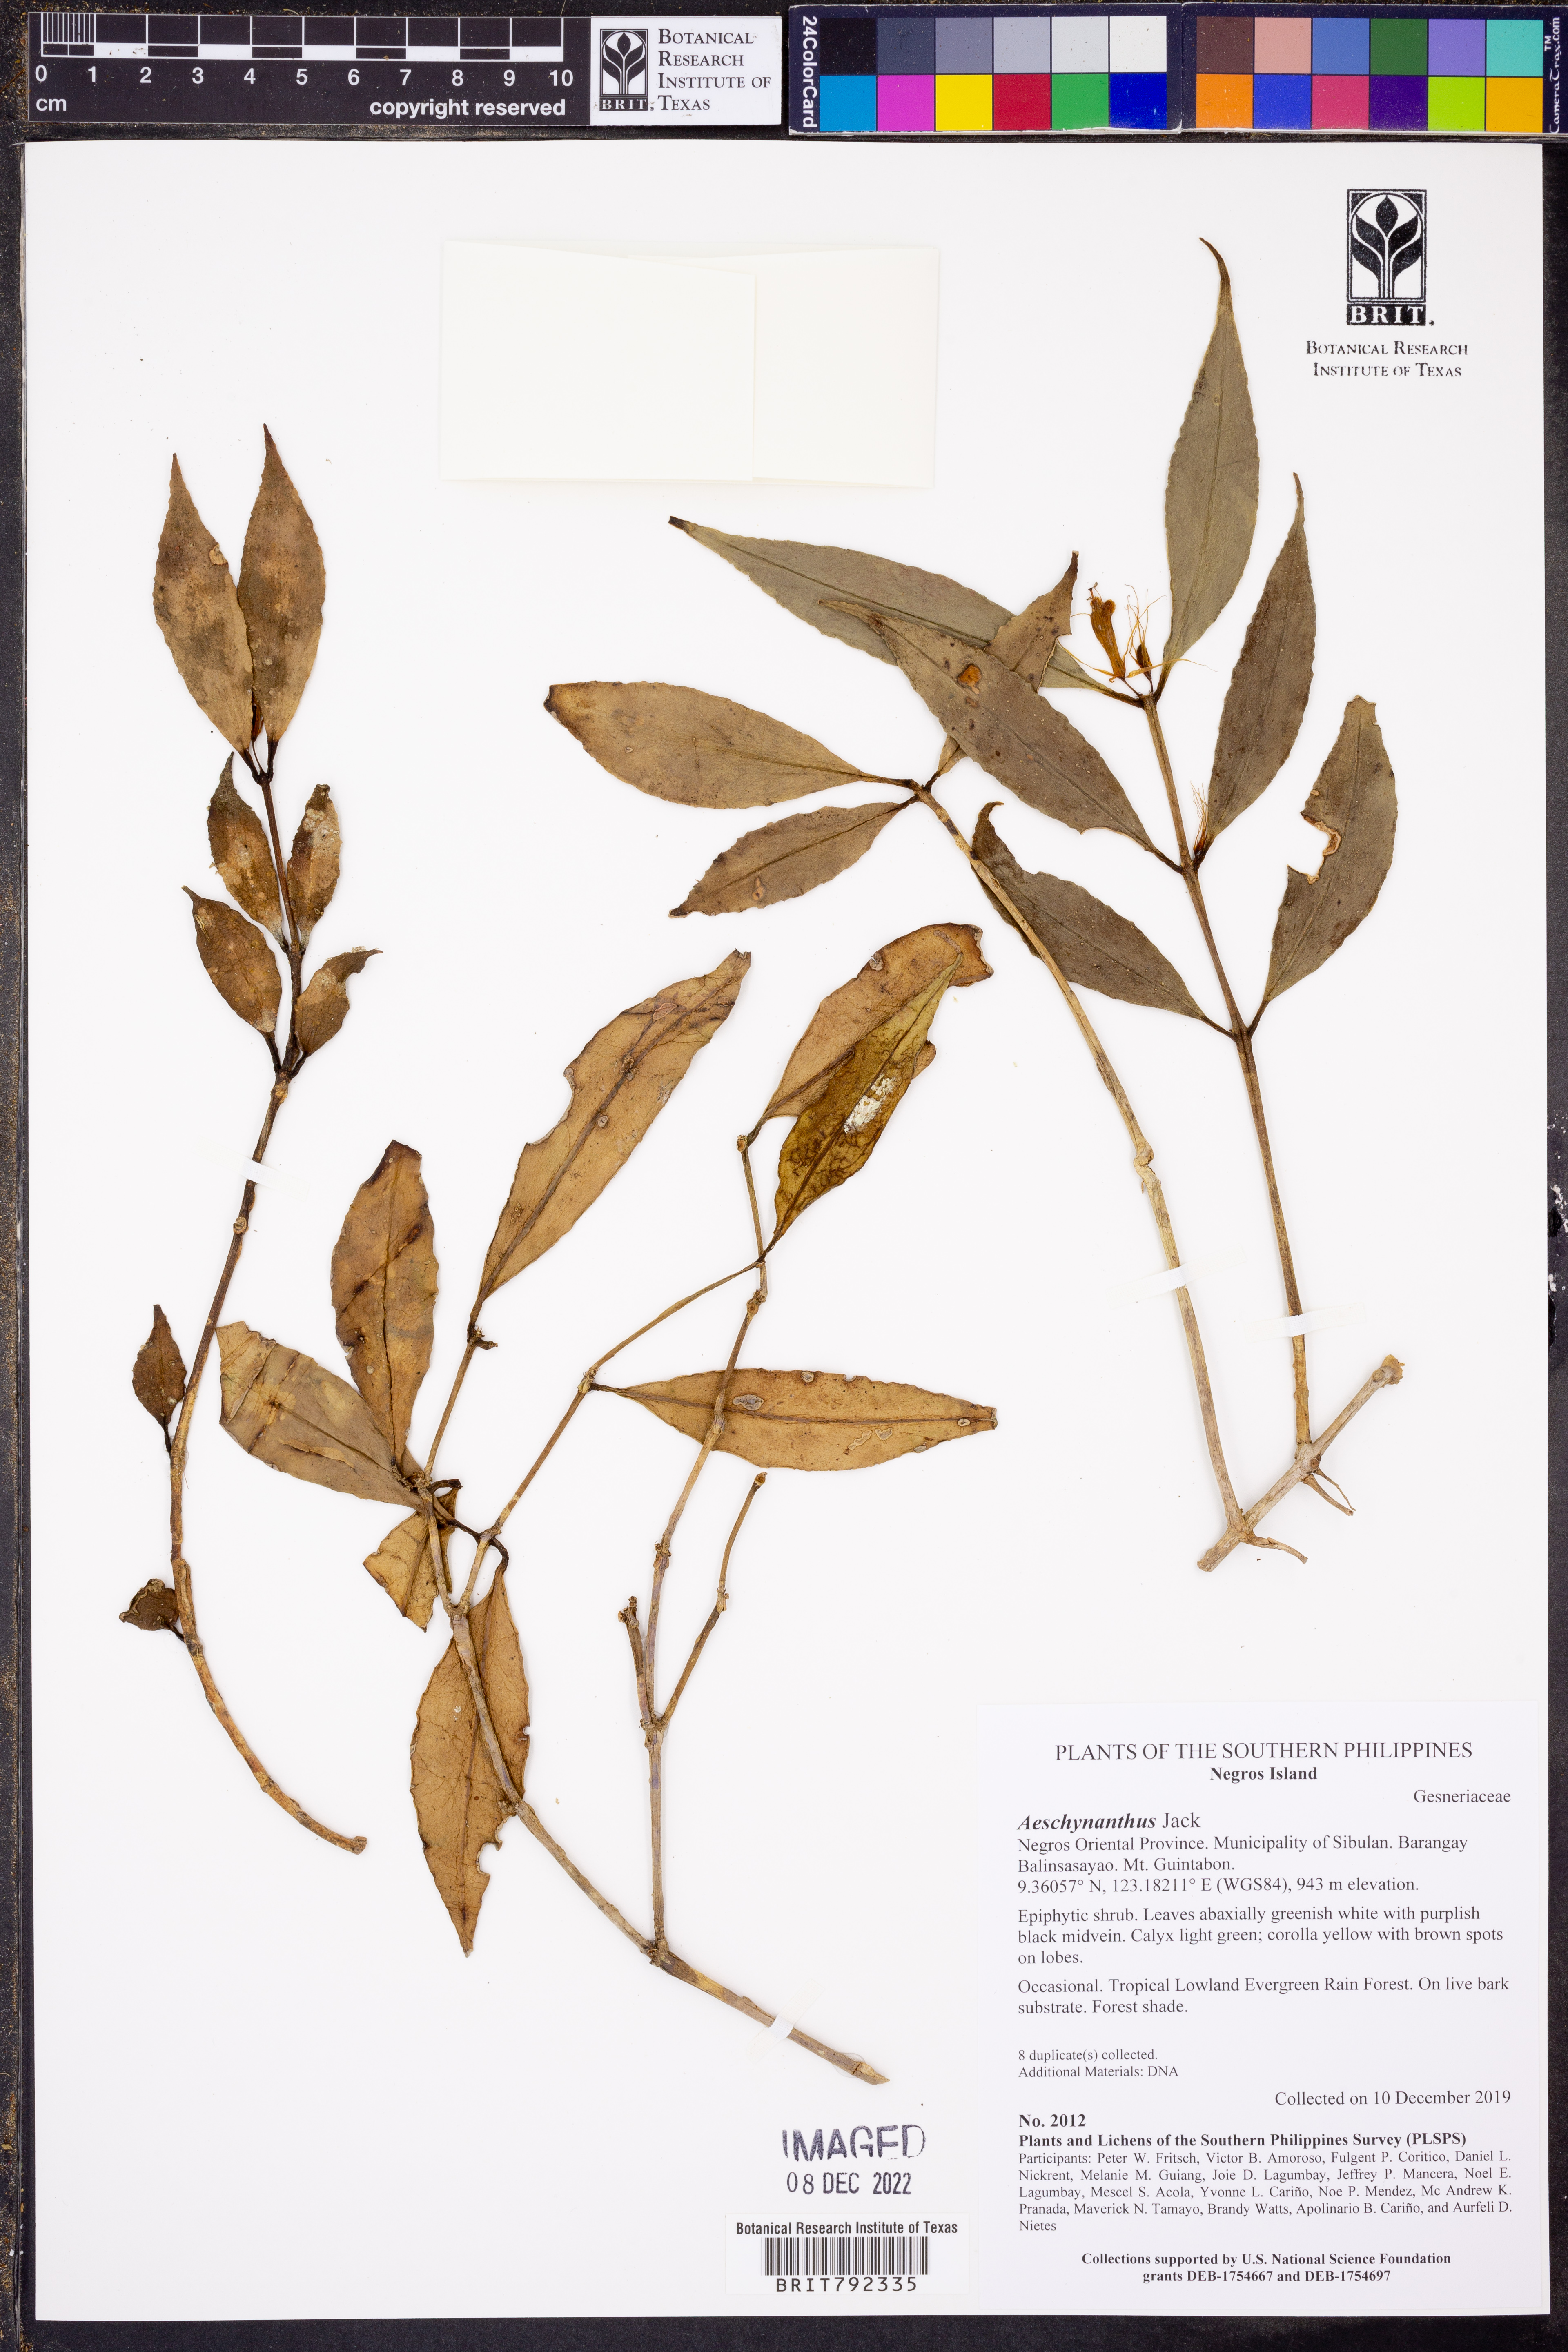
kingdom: Plantae
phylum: Tracheophyta
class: Magnoliopsida
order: Lamiales
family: Gesneriaceae
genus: Aeschynanthus
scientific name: Aeschynanthus
